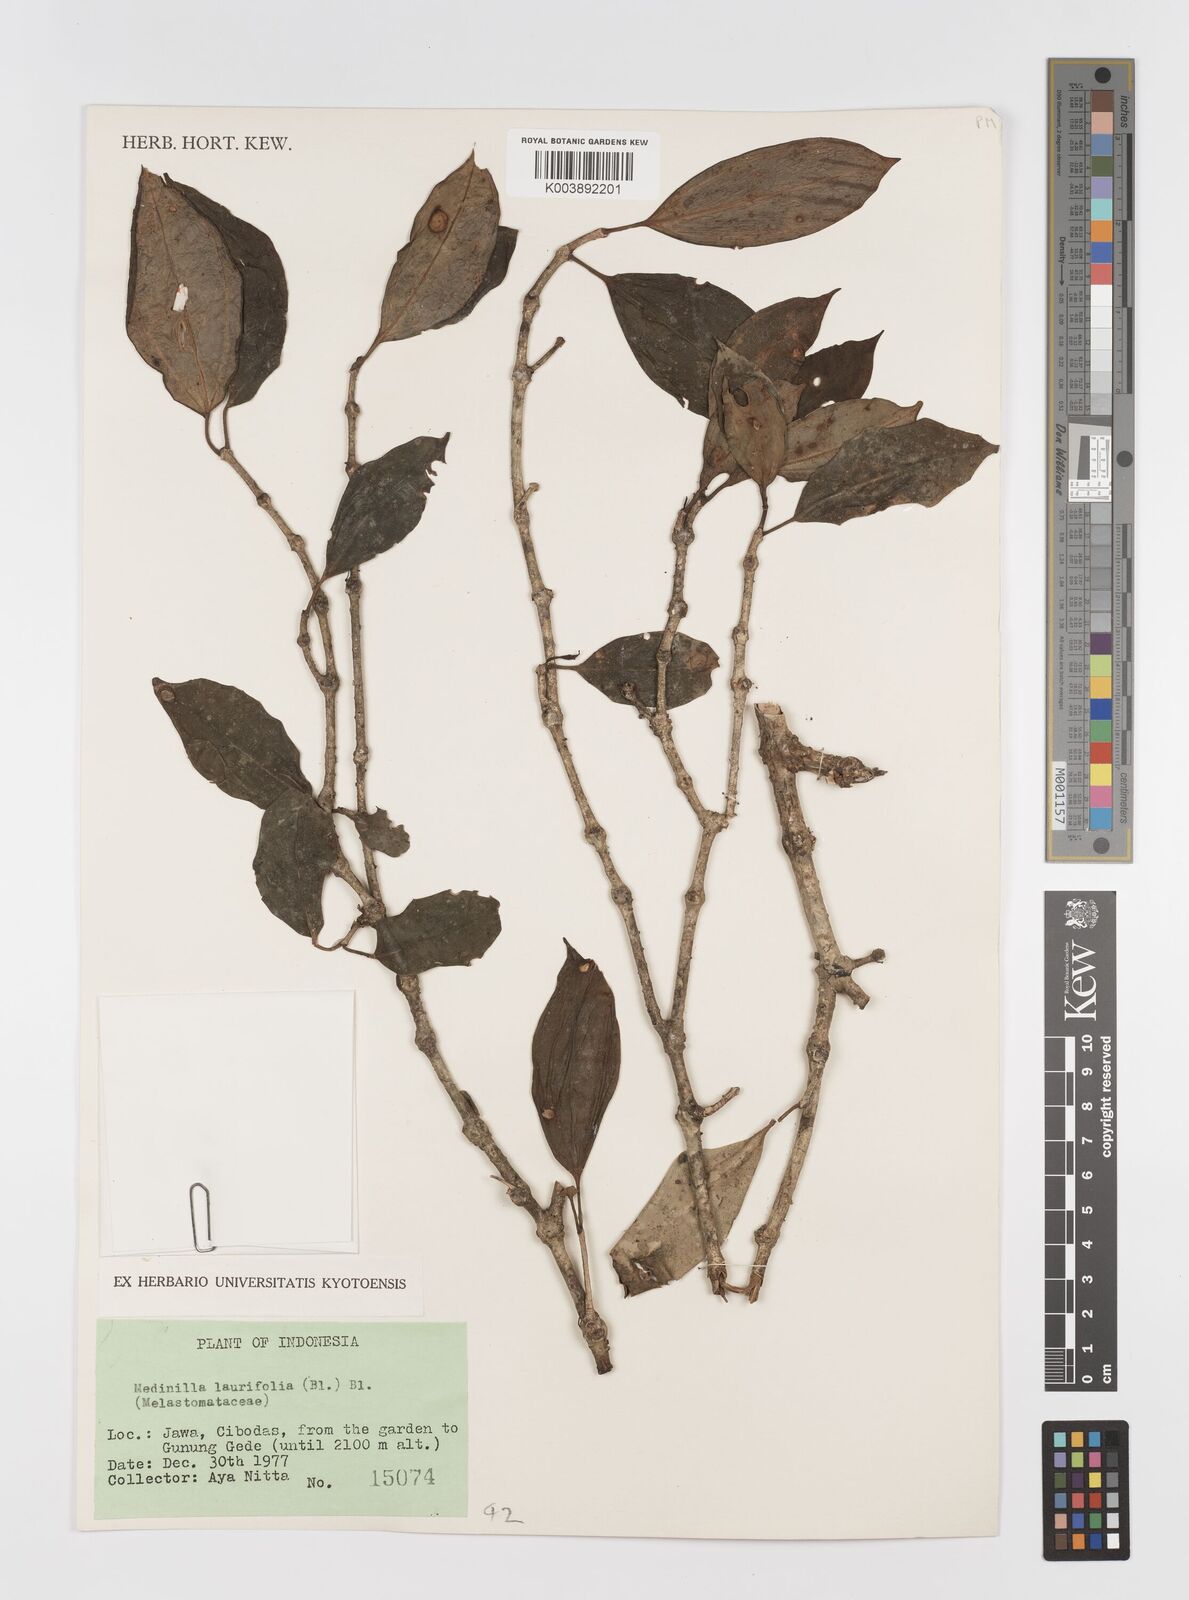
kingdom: Plantae
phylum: Tracheophyta
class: Magnoliopsida
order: Myrtales
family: Melastomataceae
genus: Medinilla
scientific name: Medinilla laurifolia
